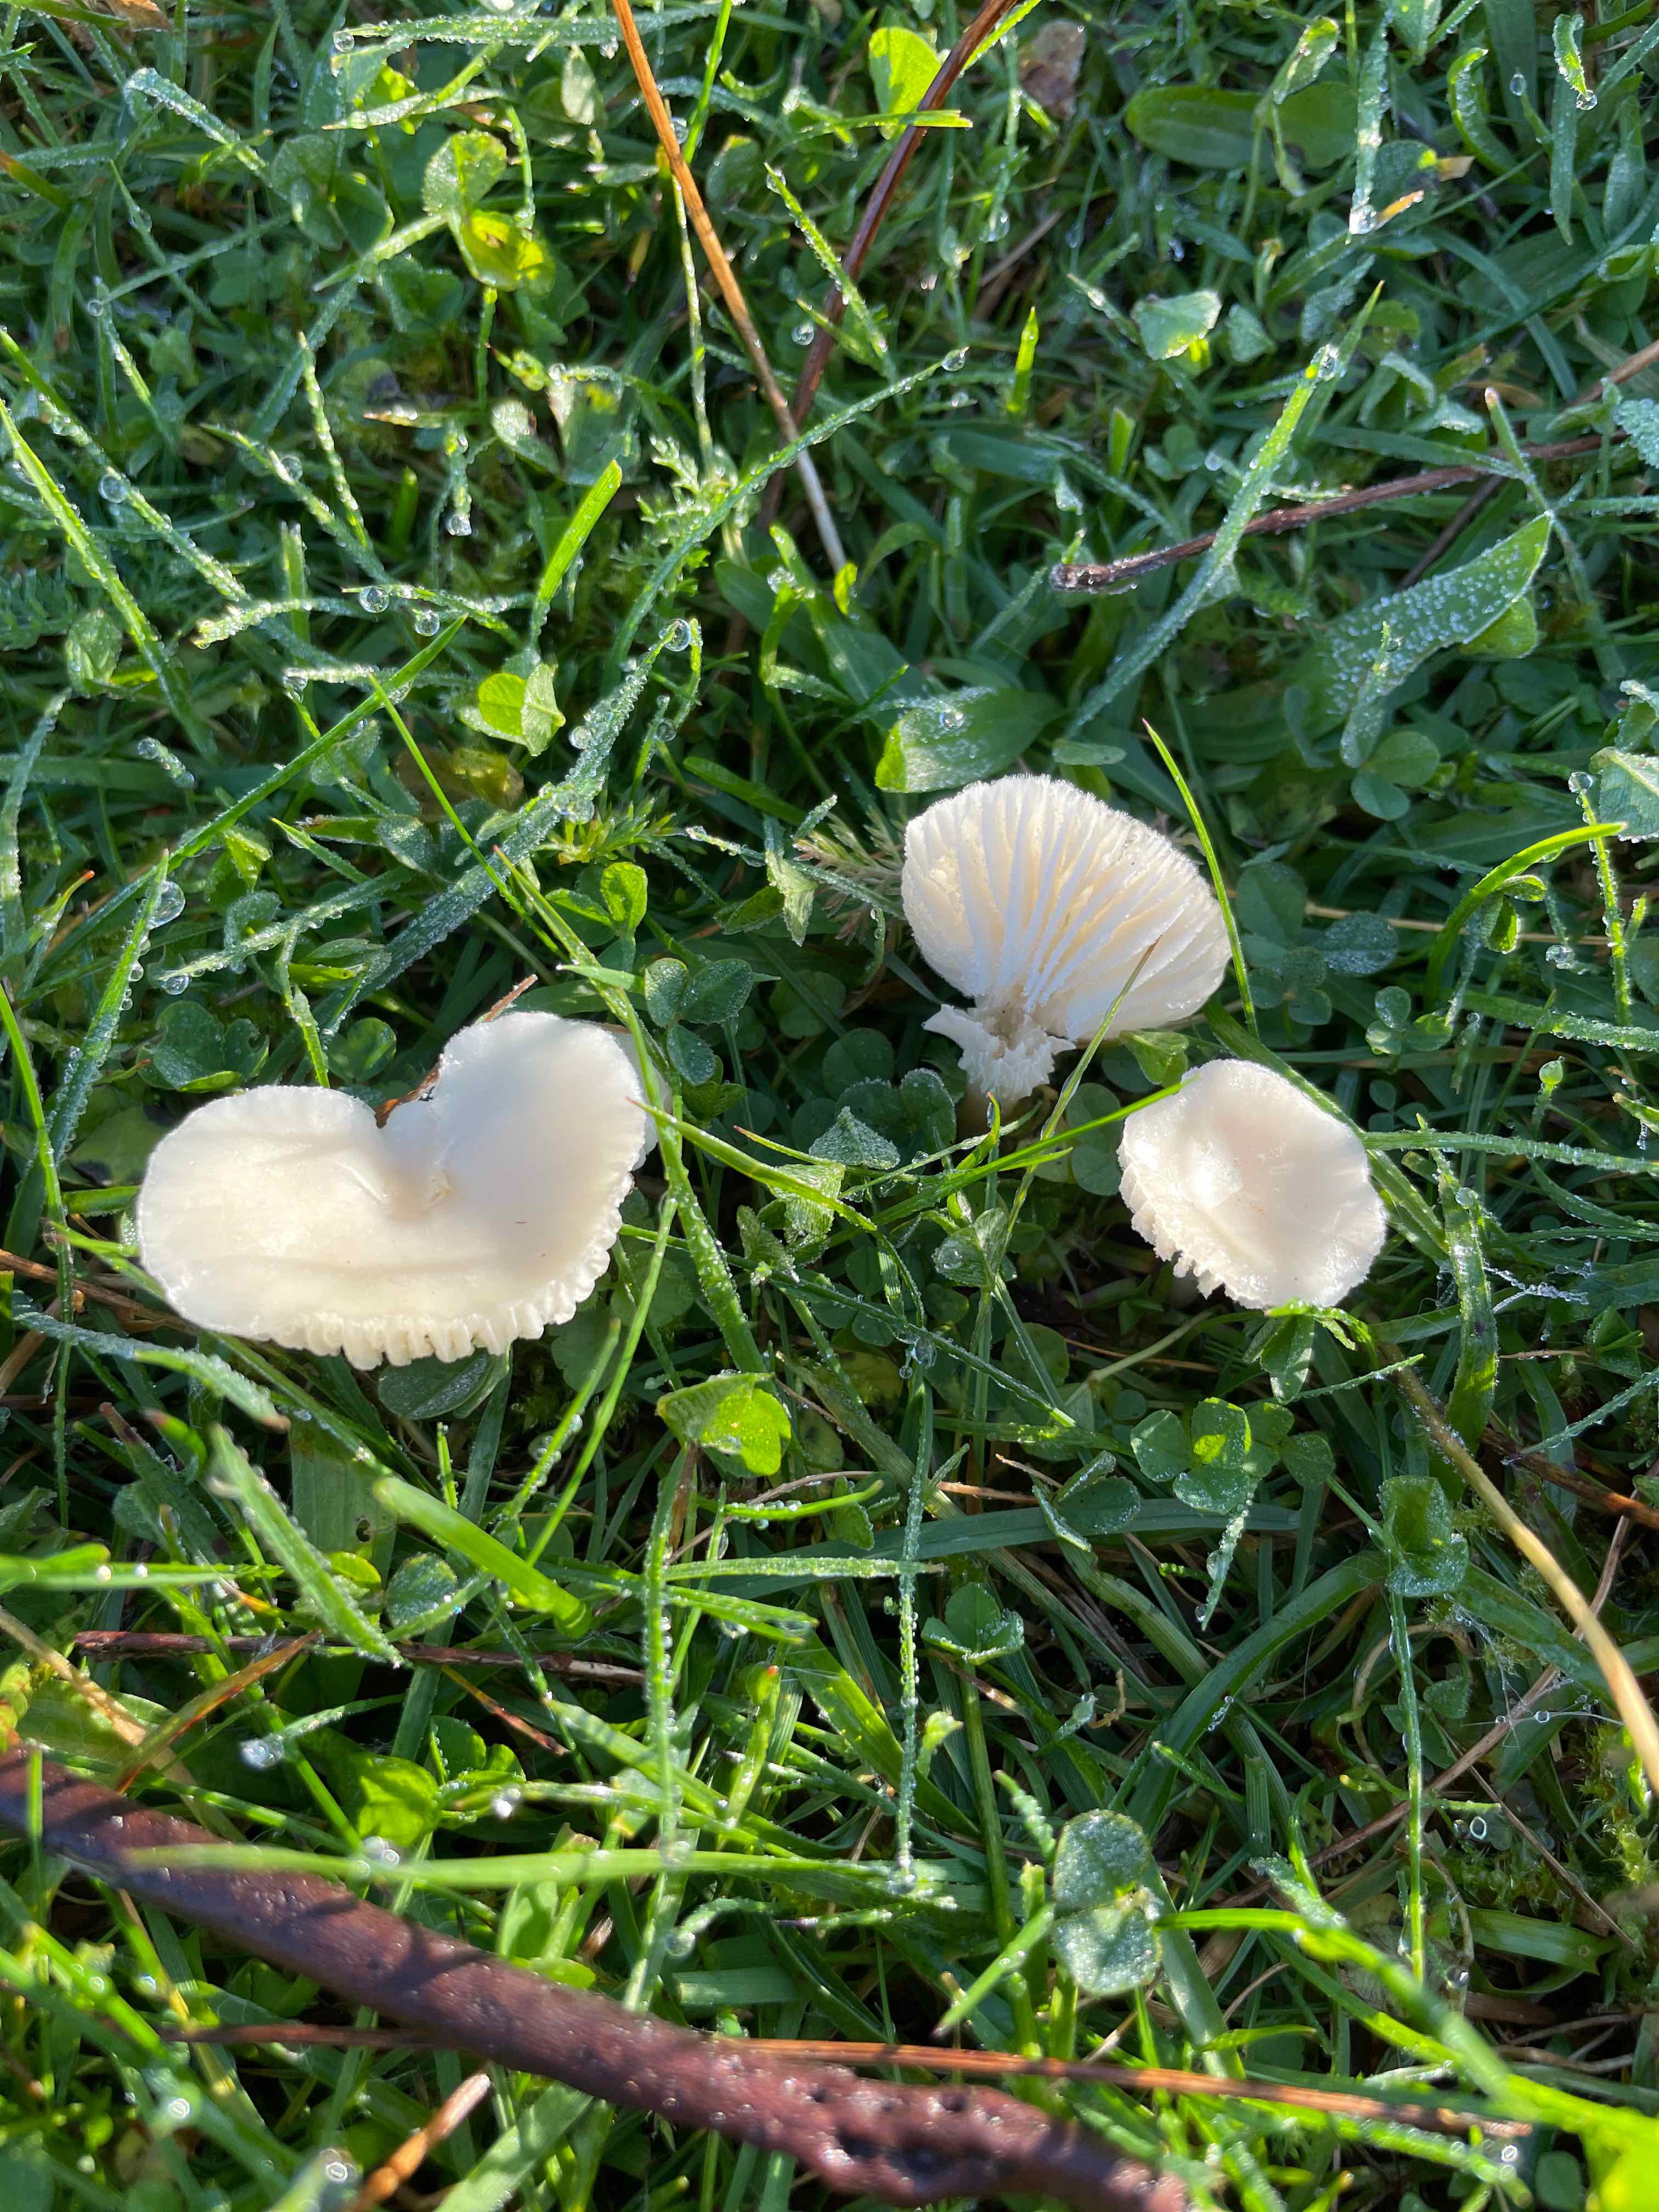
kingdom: Fungi
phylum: Basidiomycota
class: Agaricomycetes
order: Agaricales
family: Hygrophoraceae
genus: Cuphophyllus
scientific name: Cuphophyllus virgineus
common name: snehvid vokshat
